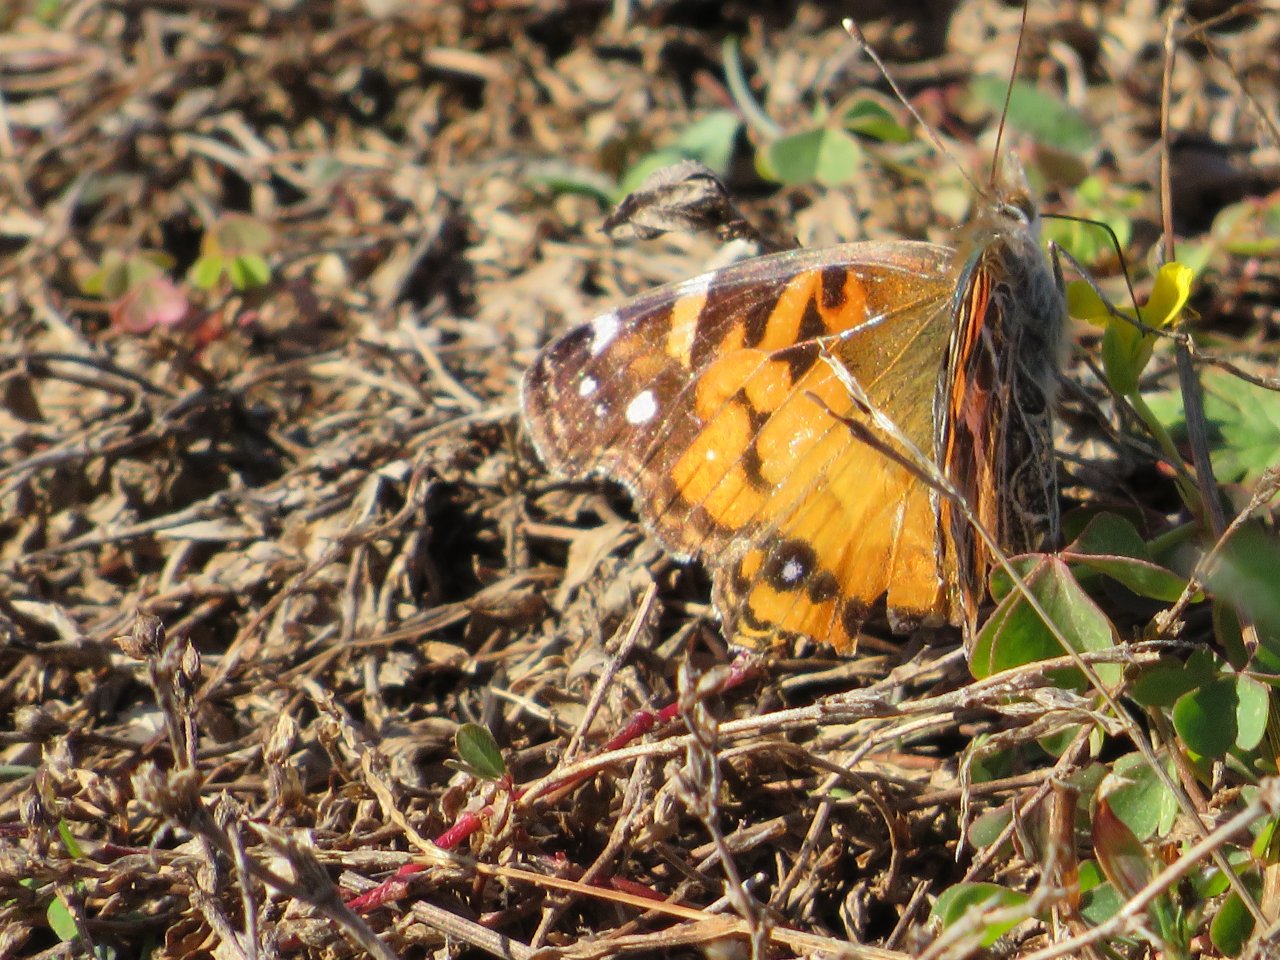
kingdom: Animalia
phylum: Arthropoda
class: Insecta
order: Lepidoptera
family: Nymphalidae
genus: Vanessa
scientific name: Vanessa virginiensis
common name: American Lady
